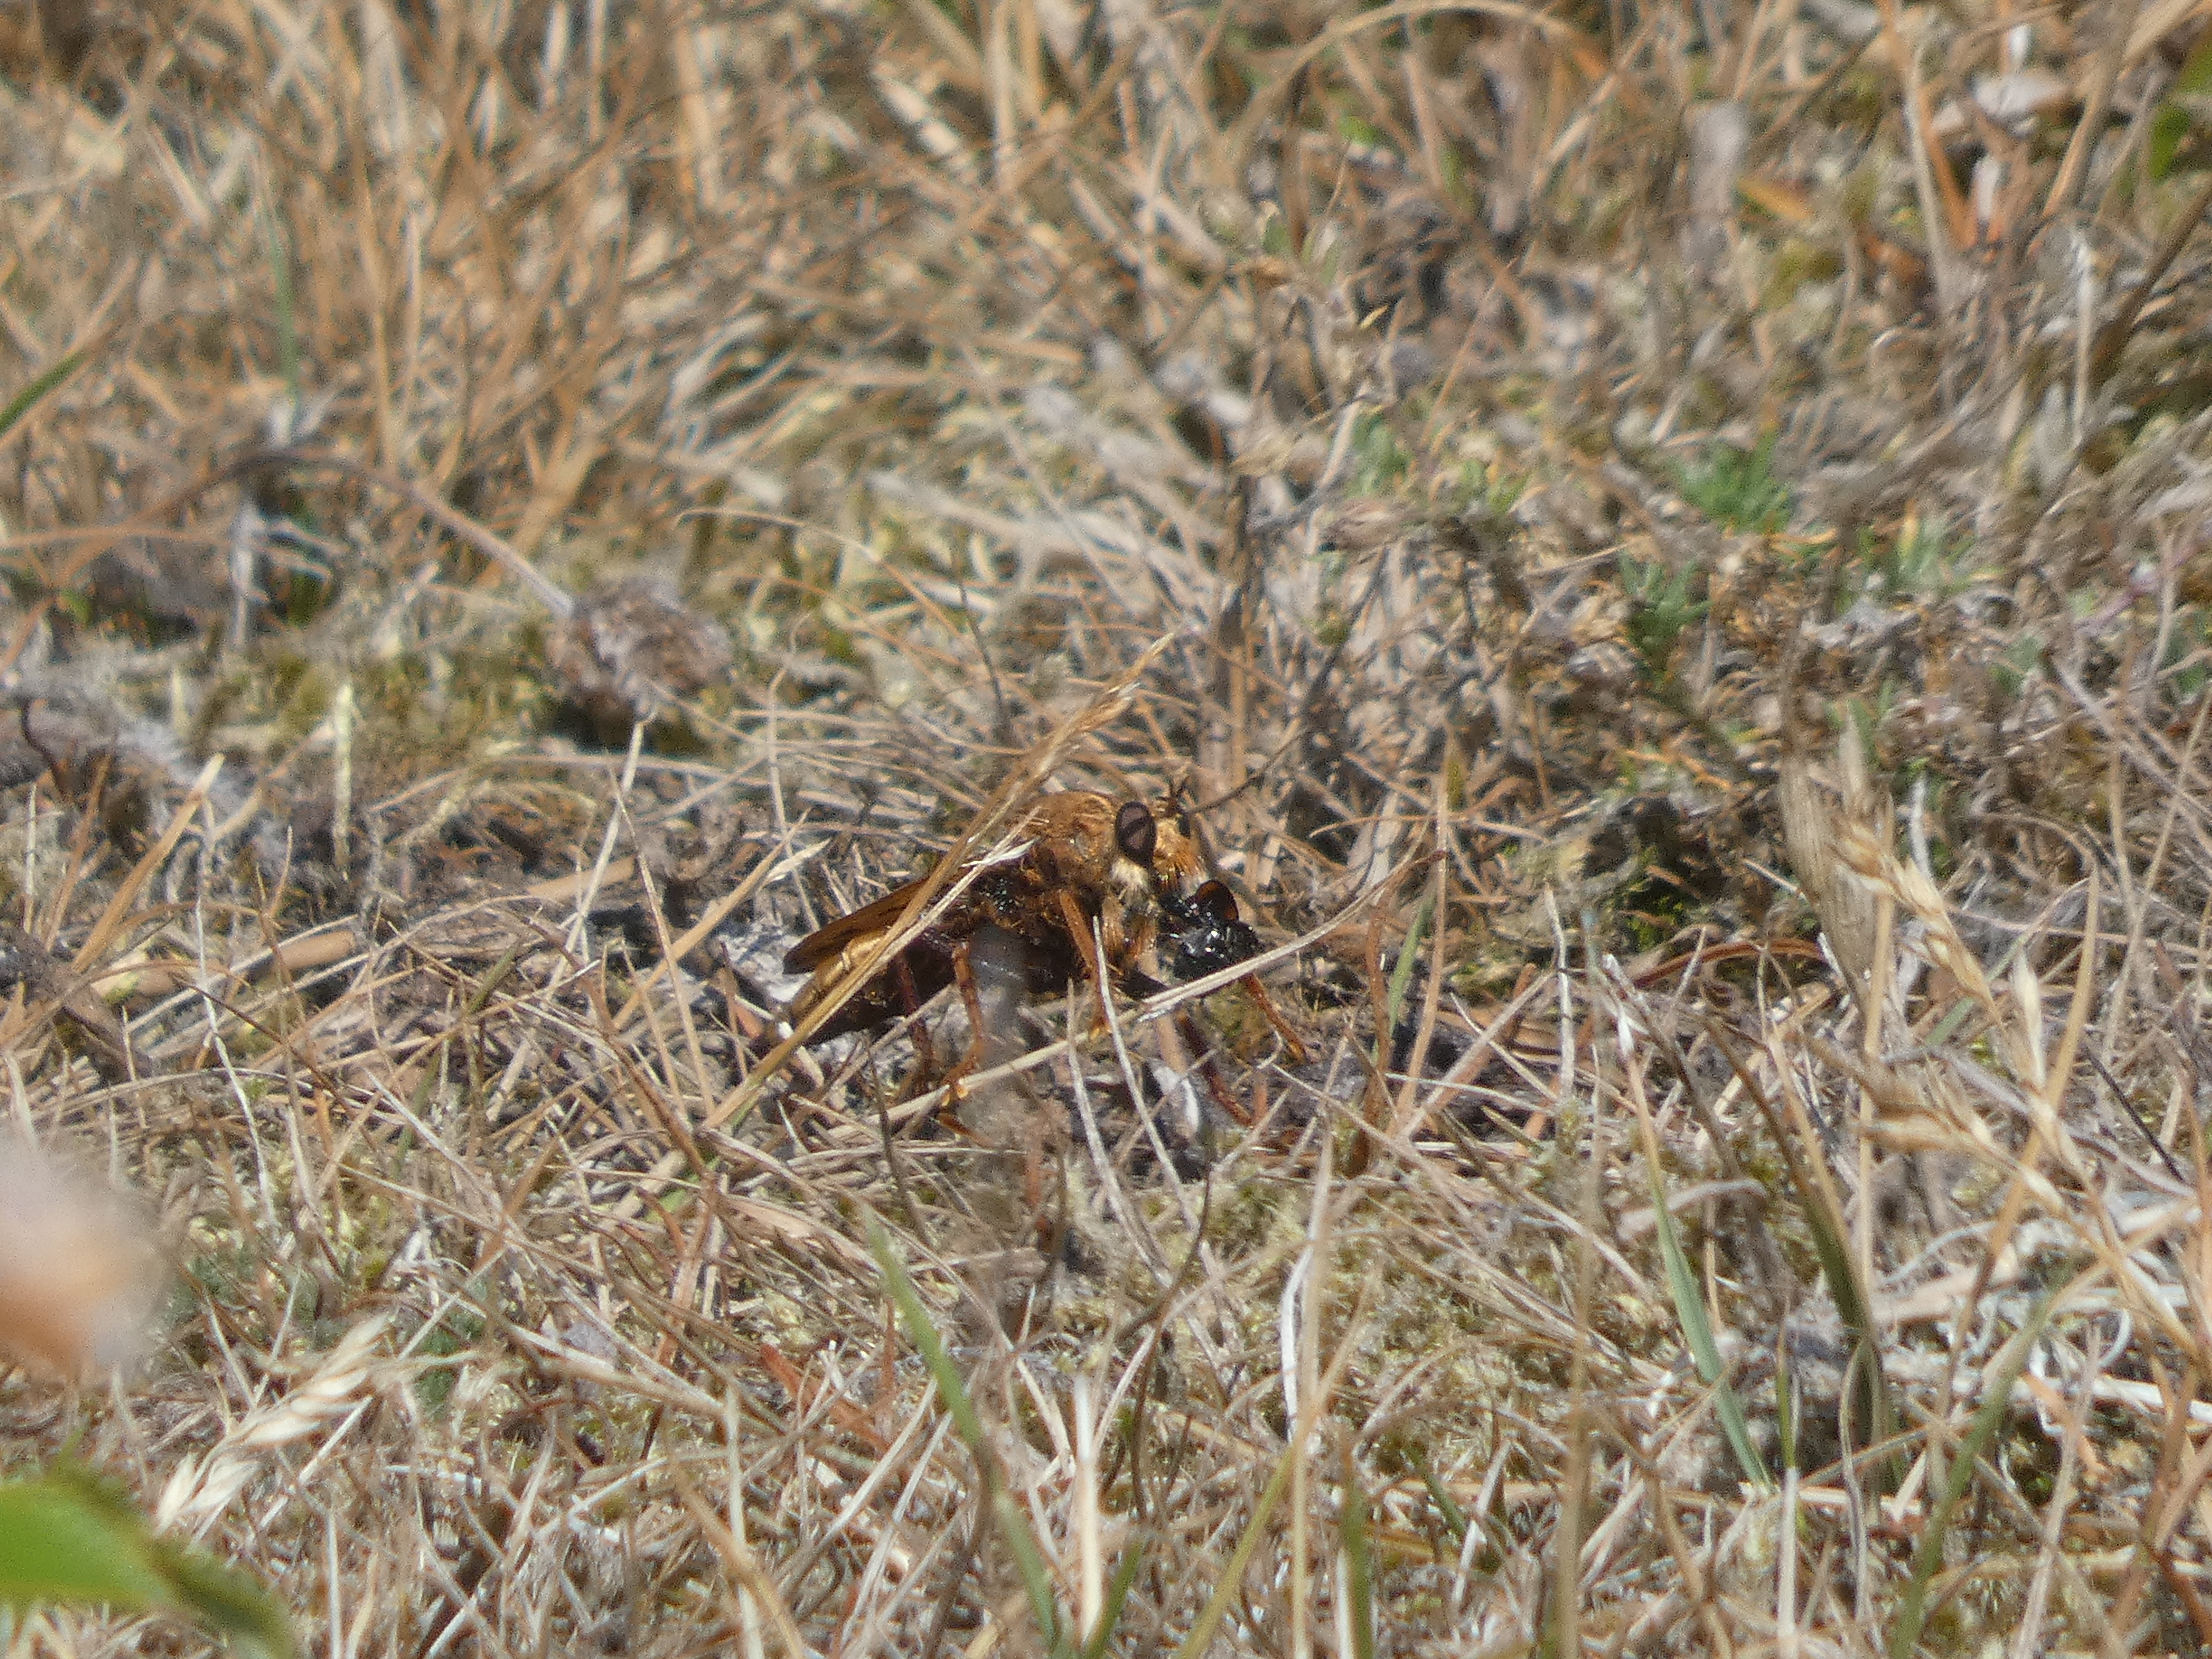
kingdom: Animalia
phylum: Arthropoda
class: Insecta
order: Diptera
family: Asilidae
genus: Asilus
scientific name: Asilus crabroniformis
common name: Stor gødningsrovflue
